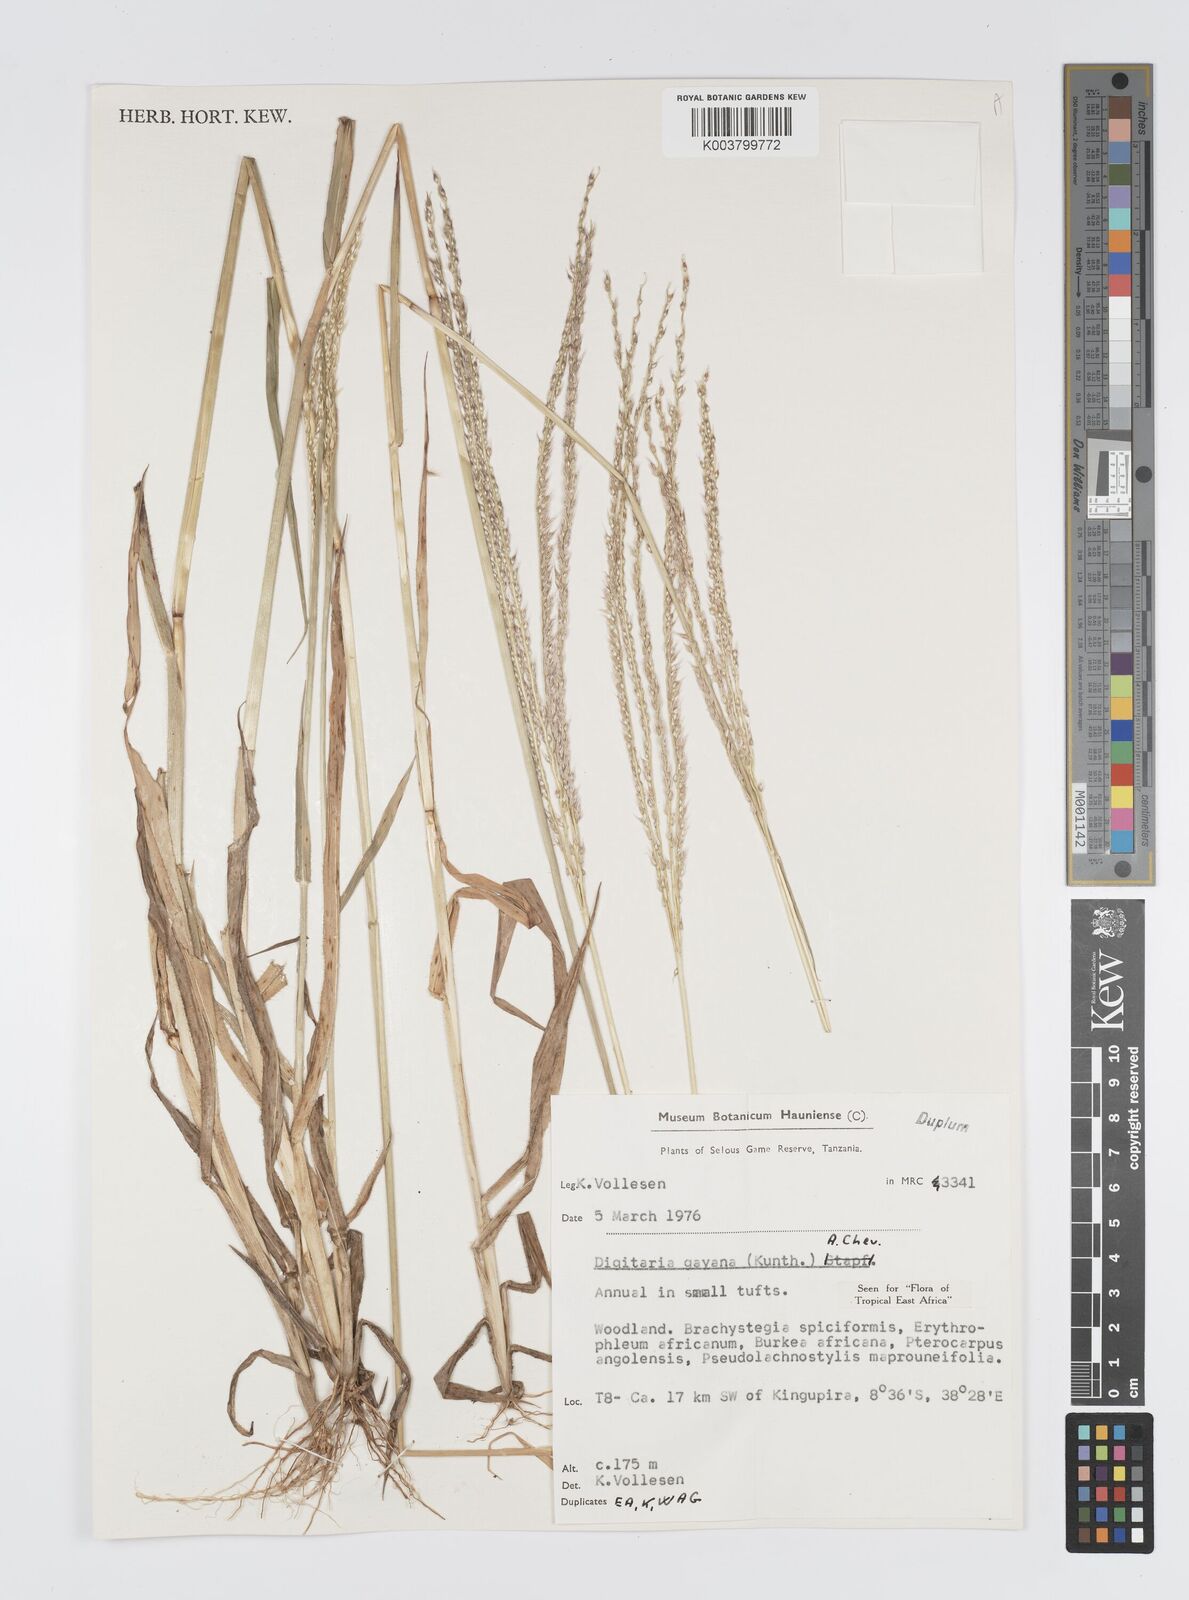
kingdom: Plantae
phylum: Tracheophyta
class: Liliopsida
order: Poales
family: Poaceae
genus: Digitaria
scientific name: Digitaria gayana
